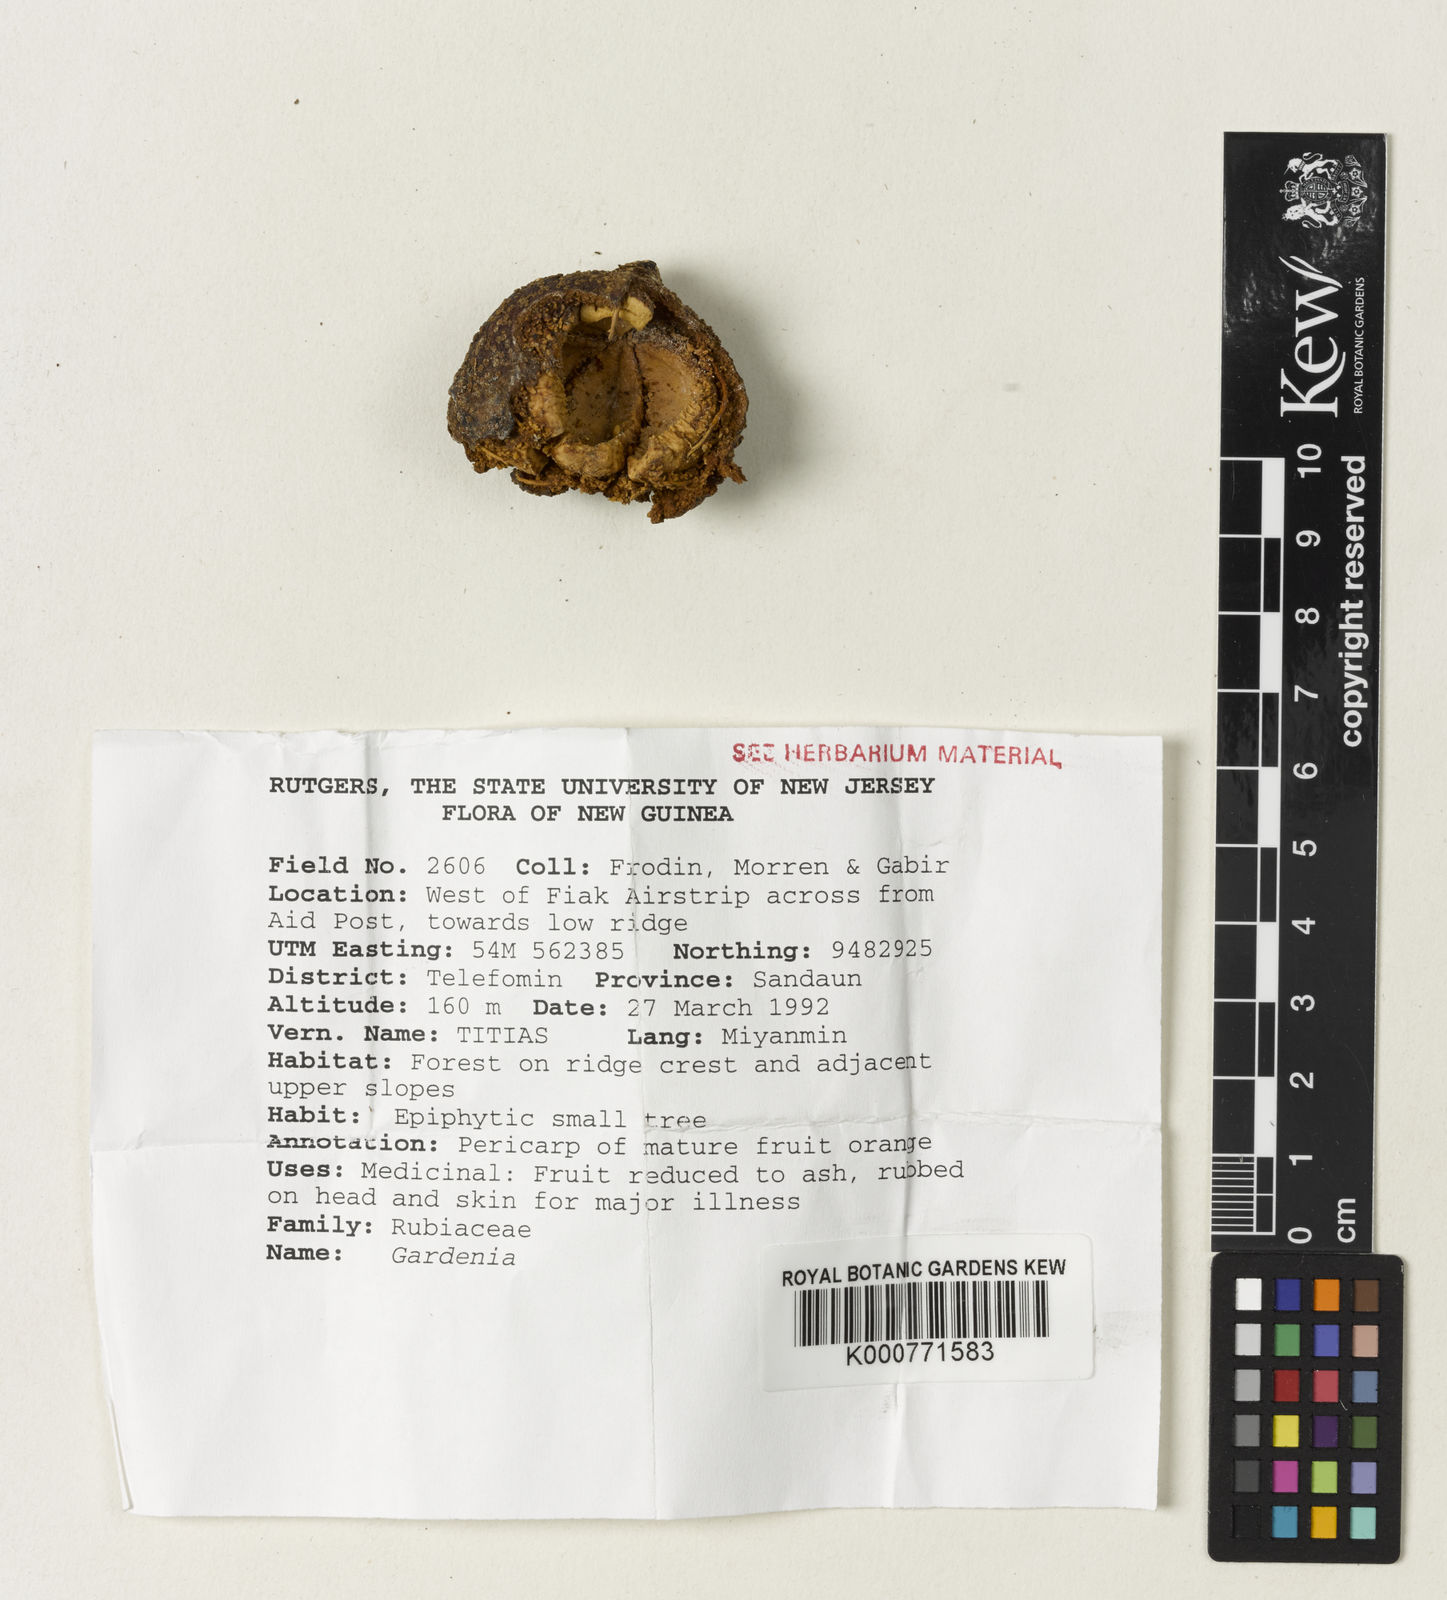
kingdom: Plantae
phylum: Tracheophyta
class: Magnoliopsida
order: Gentianales
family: Rubiaceae
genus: Gardenia
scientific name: Gardenia
